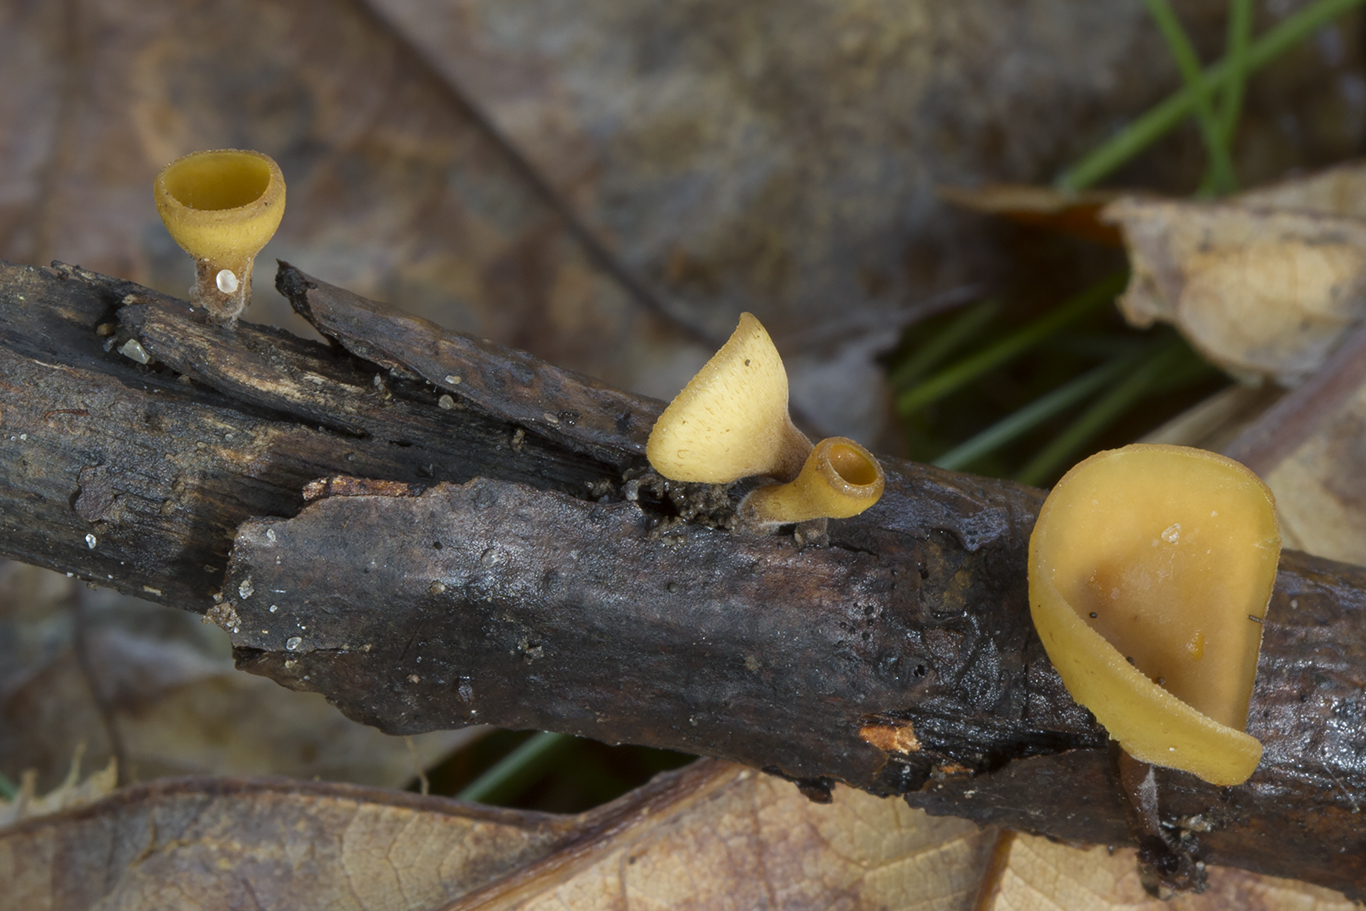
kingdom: Fungi
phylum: Ascomycota
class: Leotiomycetes
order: Helotiales
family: Rutstroemiaceae
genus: Rutstroemia
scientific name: Rutstroemia firma
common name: gren-brunskive
